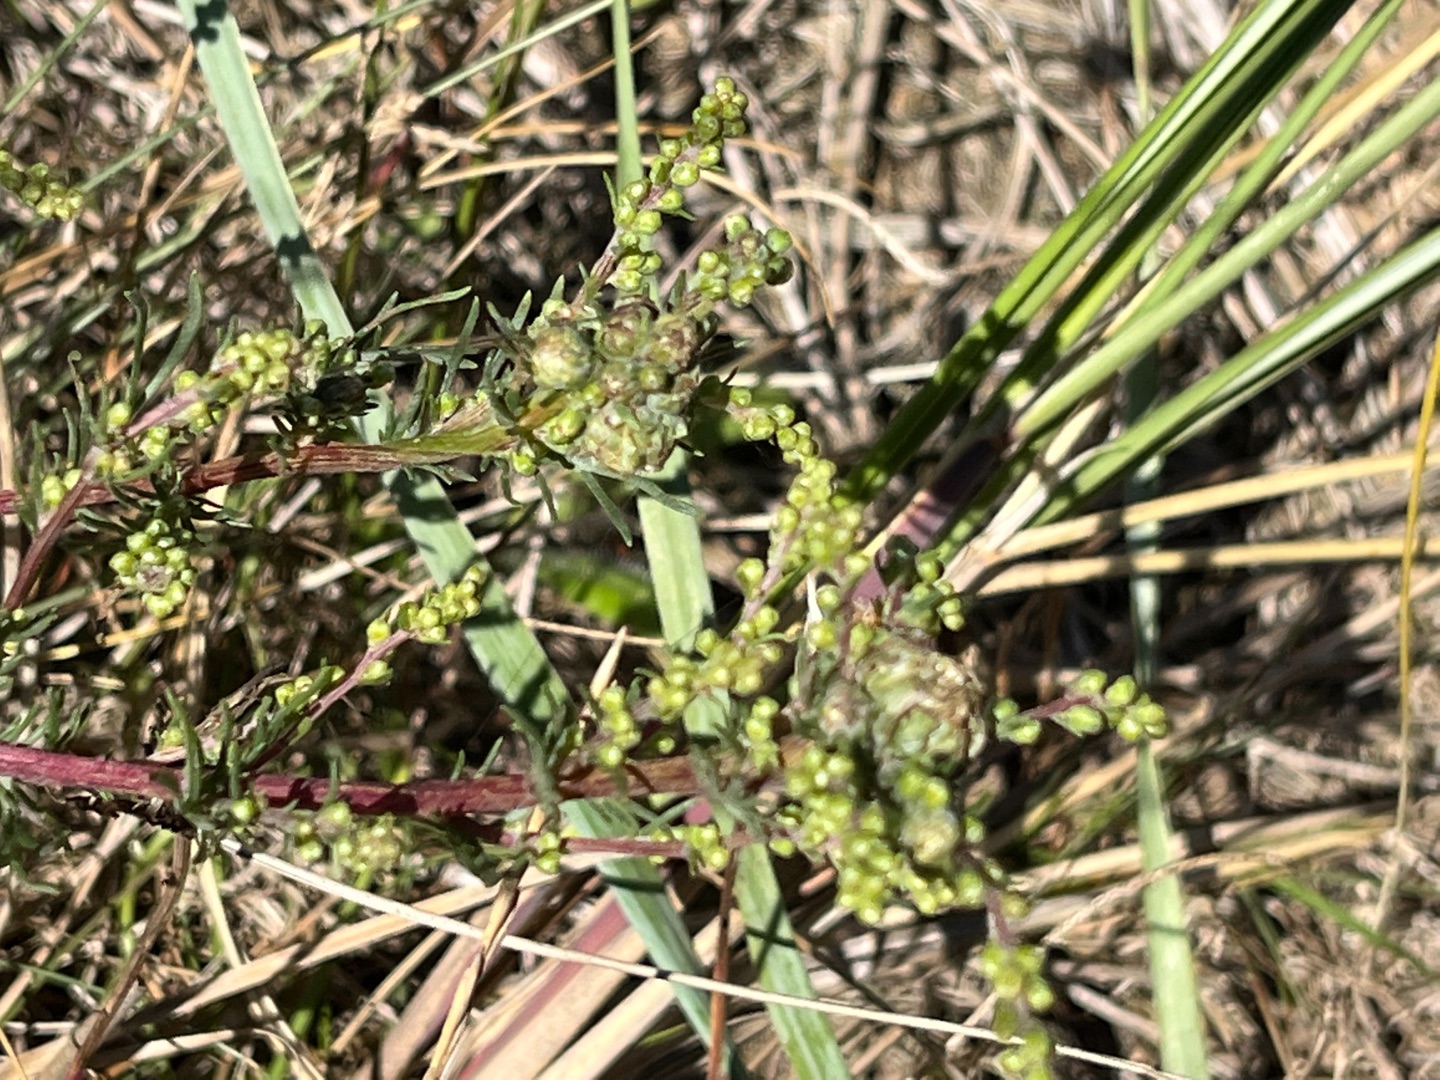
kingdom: Animalia
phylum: Arthropoda
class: Insecta
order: Diptera
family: Cecidomyiidae
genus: Rhopalomyia
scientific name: Rhopalomyia artemisiae
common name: Bynkekuglegalmyg
